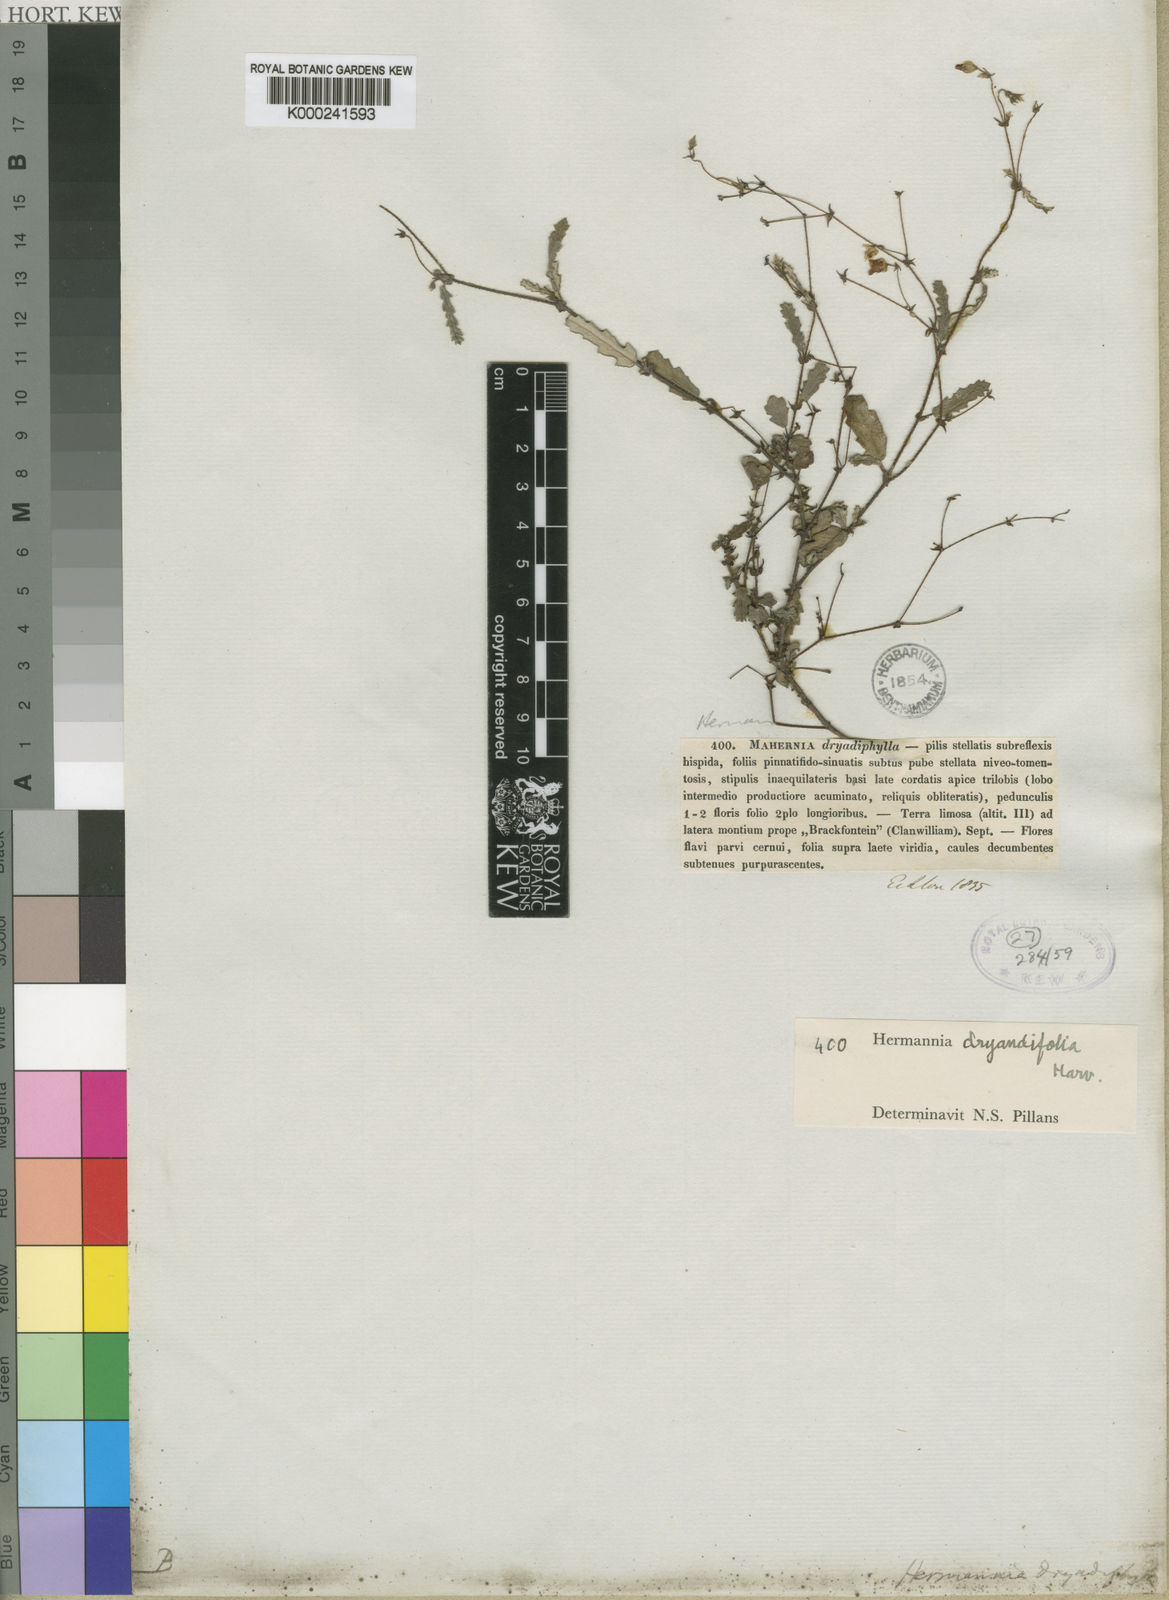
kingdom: Plantae
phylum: Tracheophyta
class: Magnoliopsida
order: Malvales
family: Malvaceae
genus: Hermannia
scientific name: Hermannia muricata
